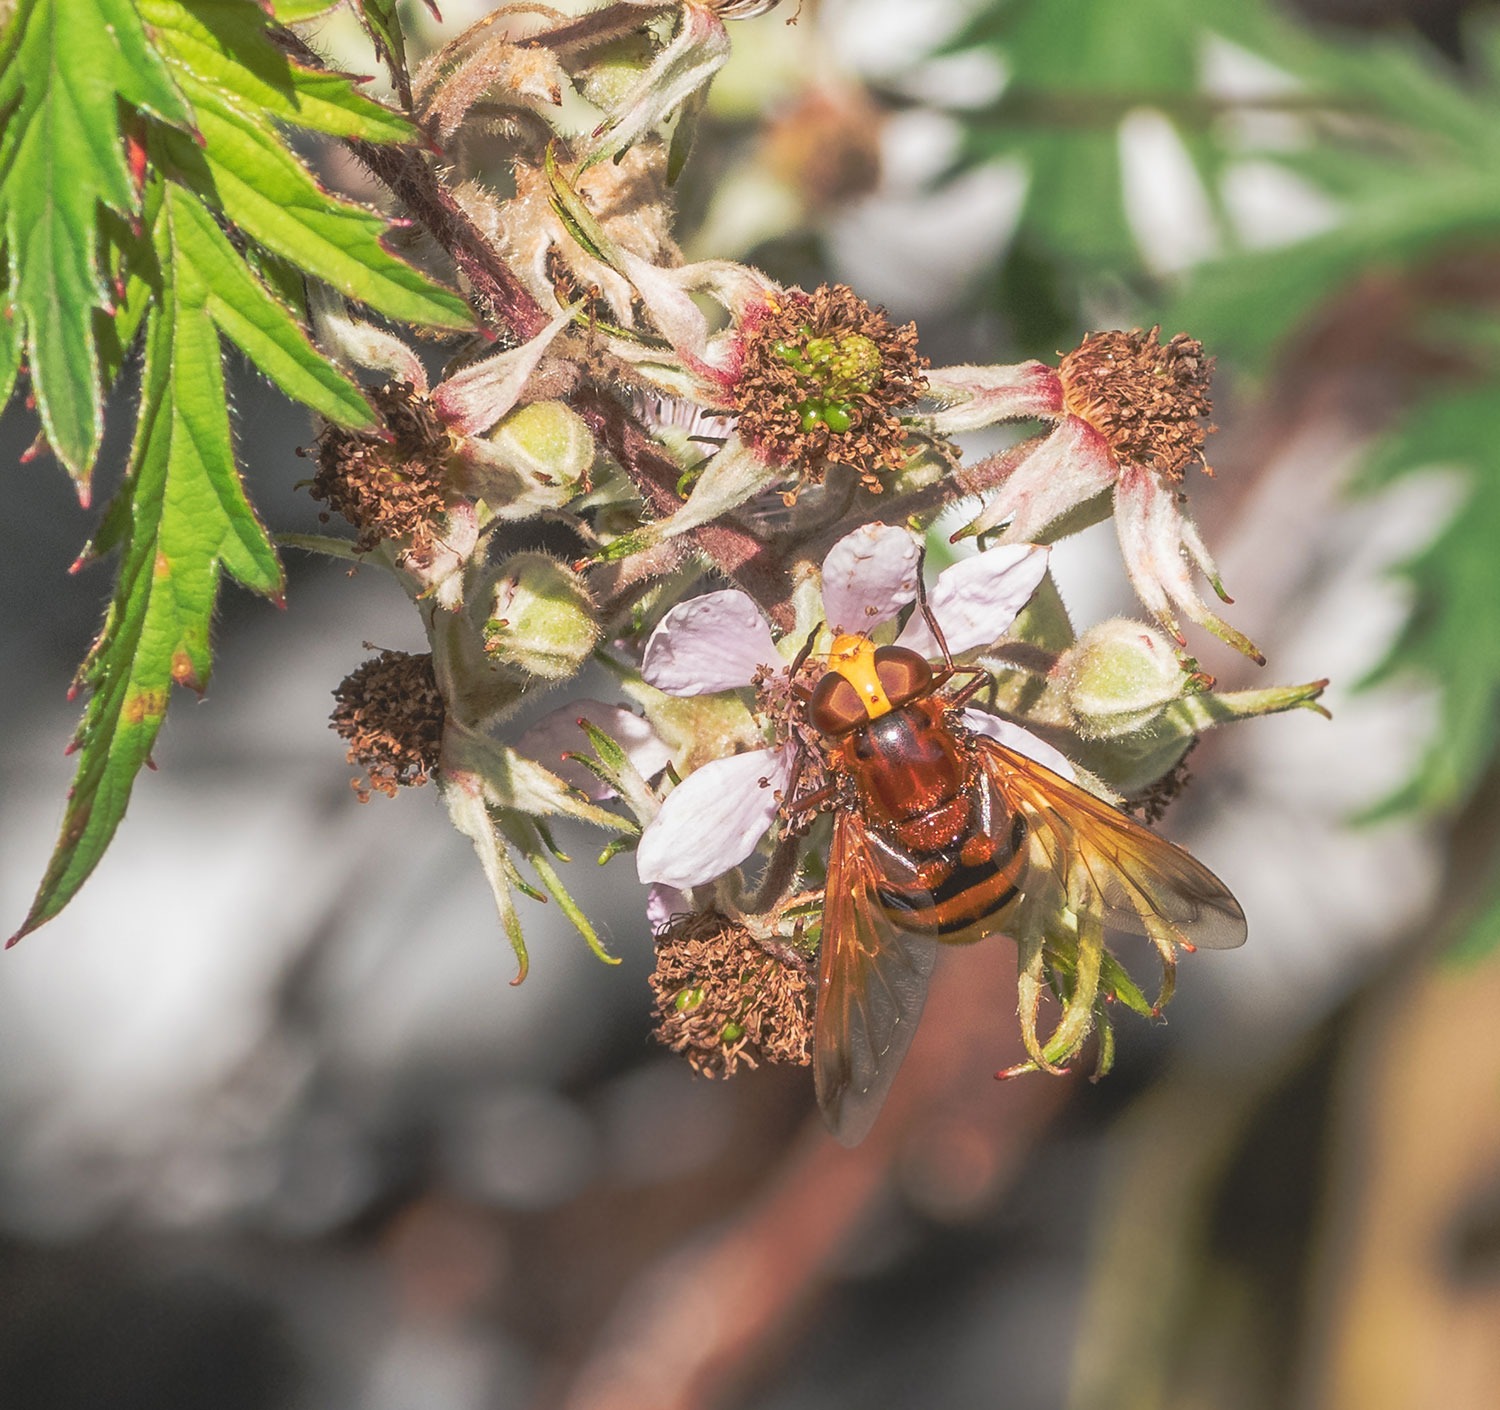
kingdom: Animalia
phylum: Arthropoda
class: Insecta
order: Diptera
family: Syrphidae
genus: Volucella
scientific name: Volucella zonaria
